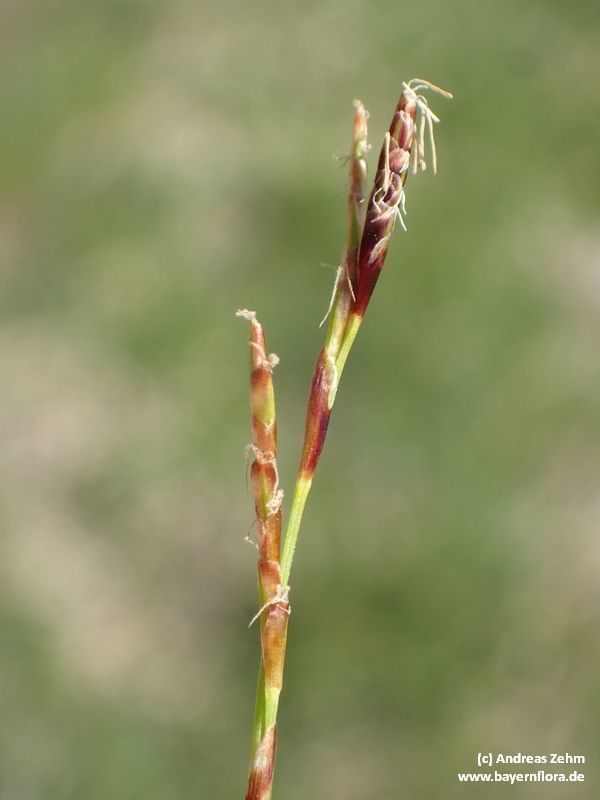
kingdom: Plantae
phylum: Tracheophyta
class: Liliopsida
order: Poales
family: Cyperaceae
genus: Carex
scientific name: Carex digitata
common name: Fingered sedge
